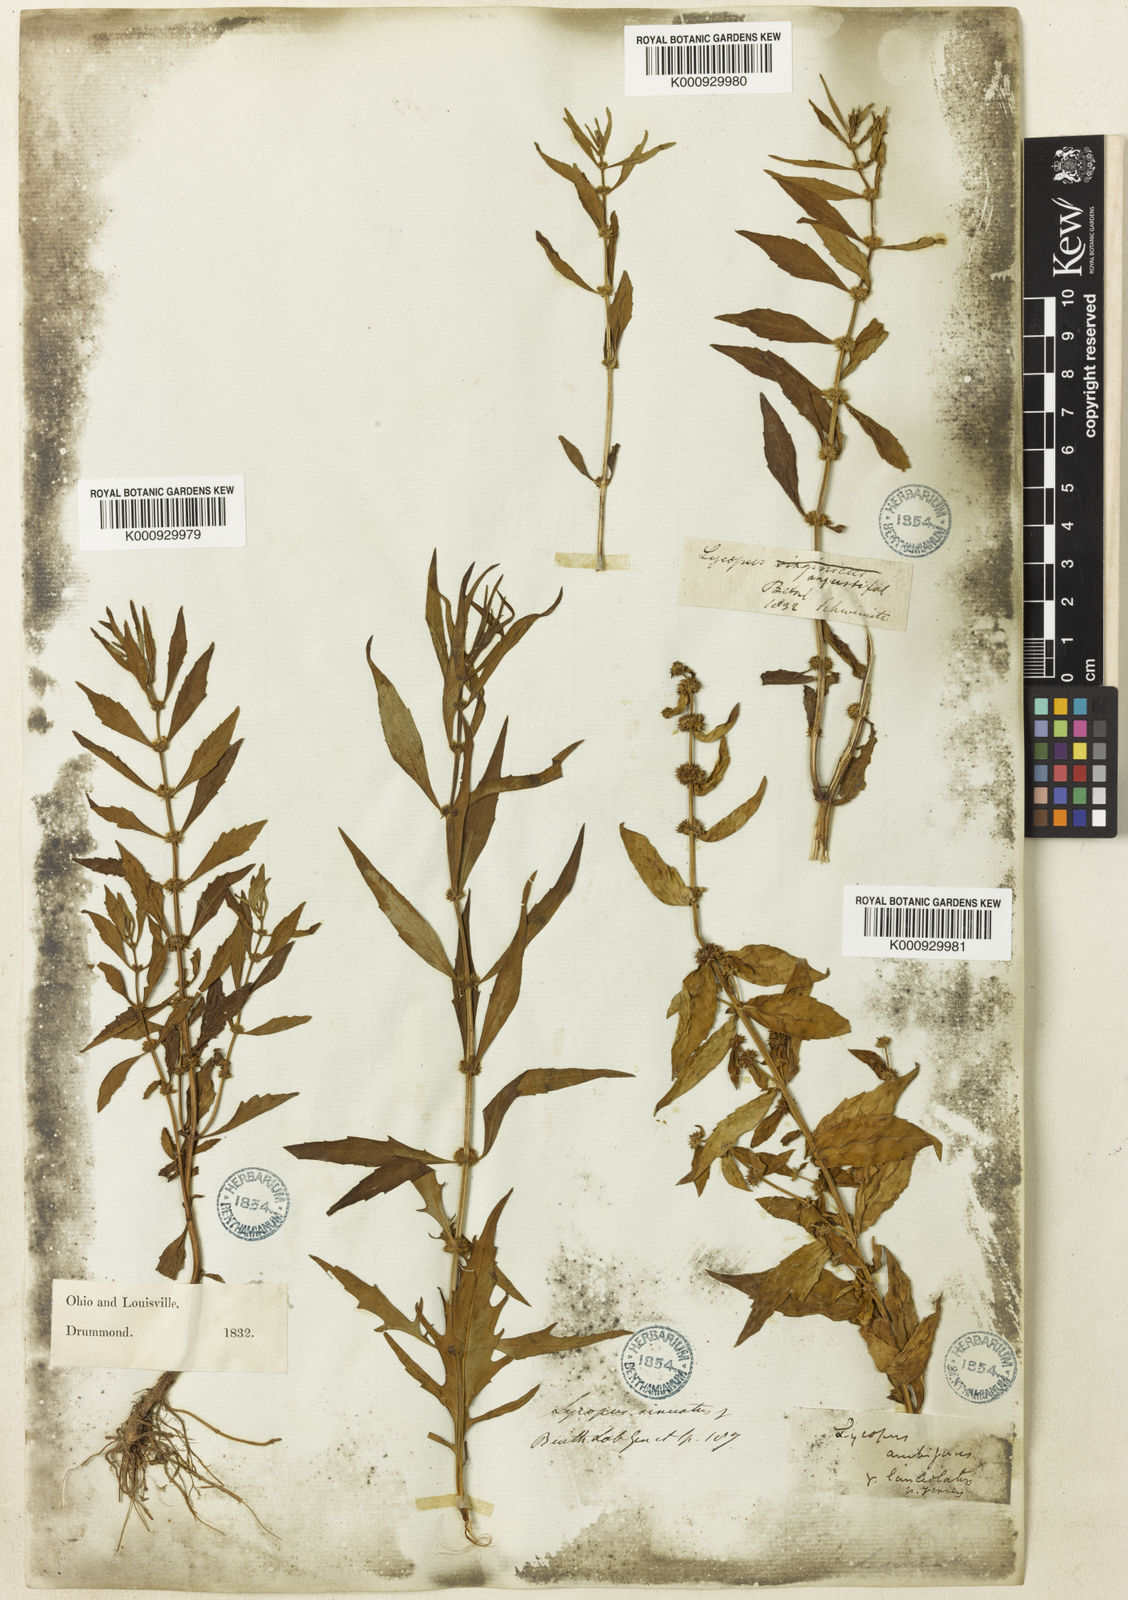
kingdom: Plantae
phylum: Tracheophyta
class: Magnoliopsida
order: Lamiales
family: Lamiaceae
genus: Lycopus
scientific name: Lycopus
